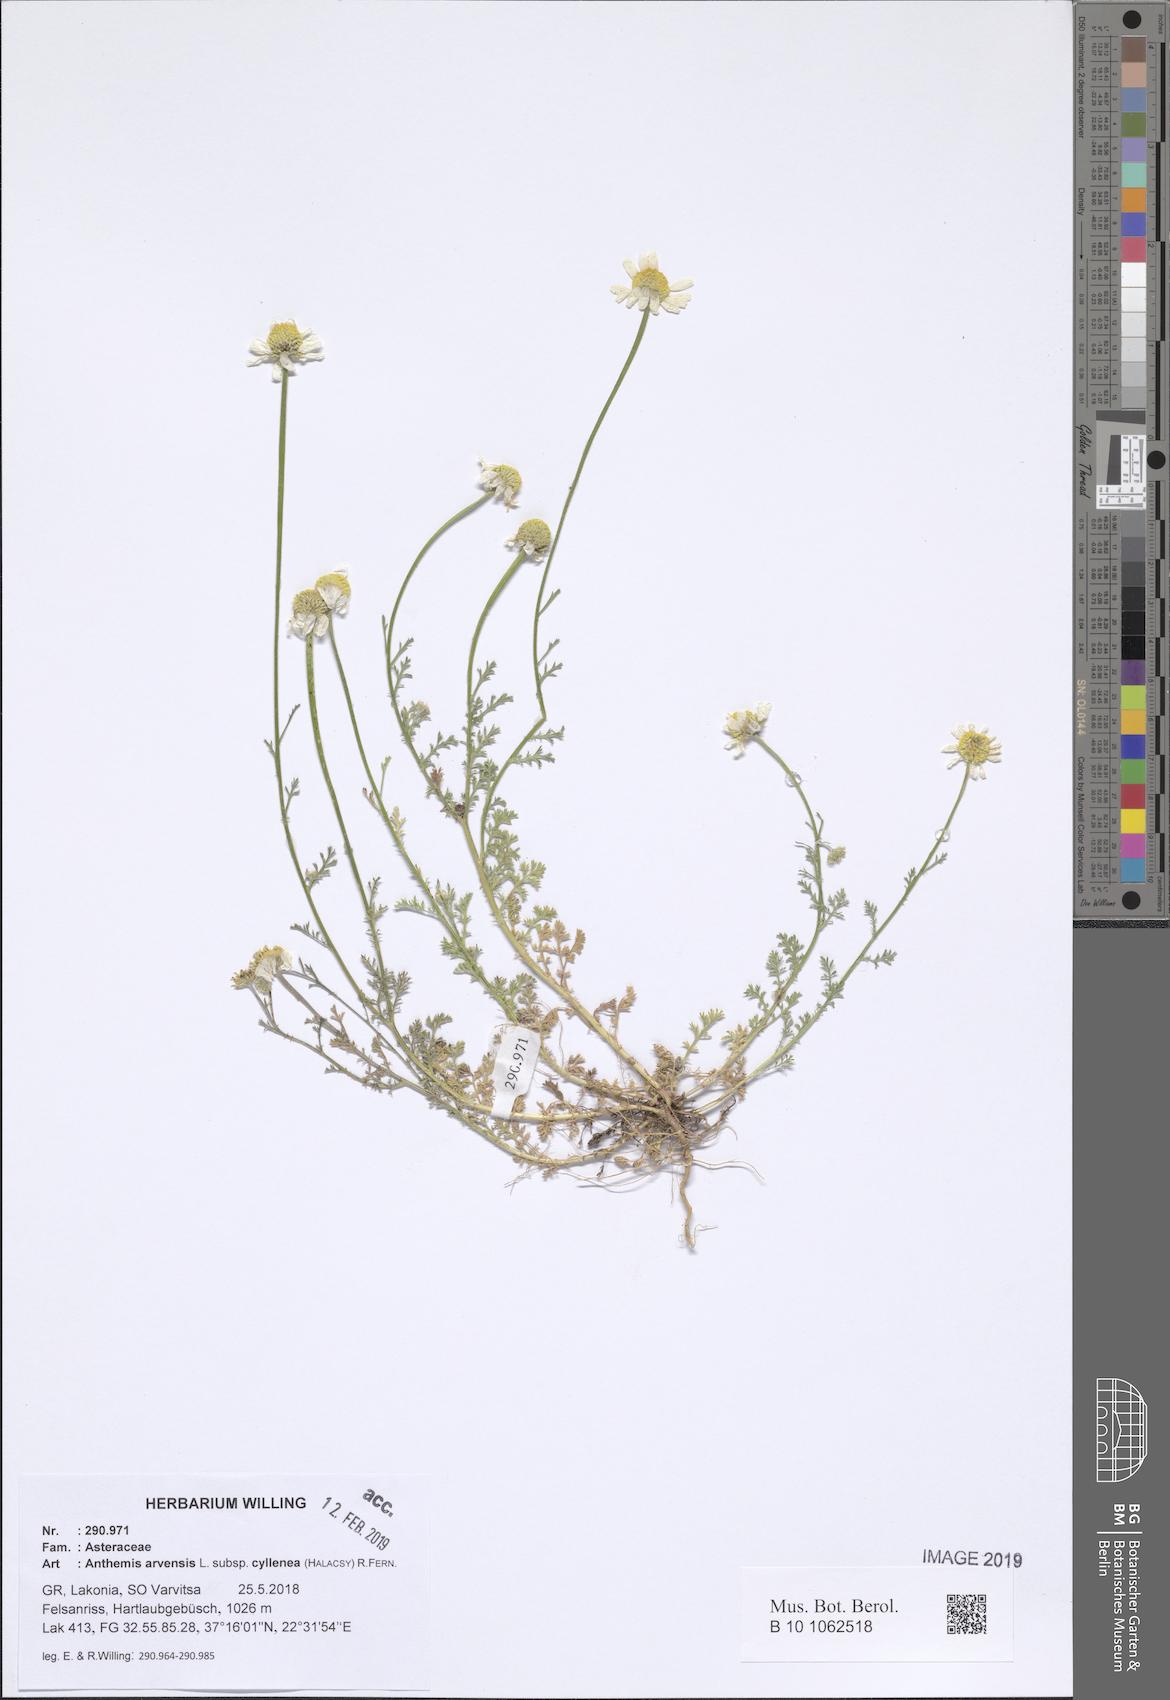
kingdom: Plantae
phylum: Tracheophyta
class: Magnoliopsida
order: Asterales
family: Asteraceae
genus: Anthemis
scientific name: Anthemis arvensis
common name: Corn chamomile
